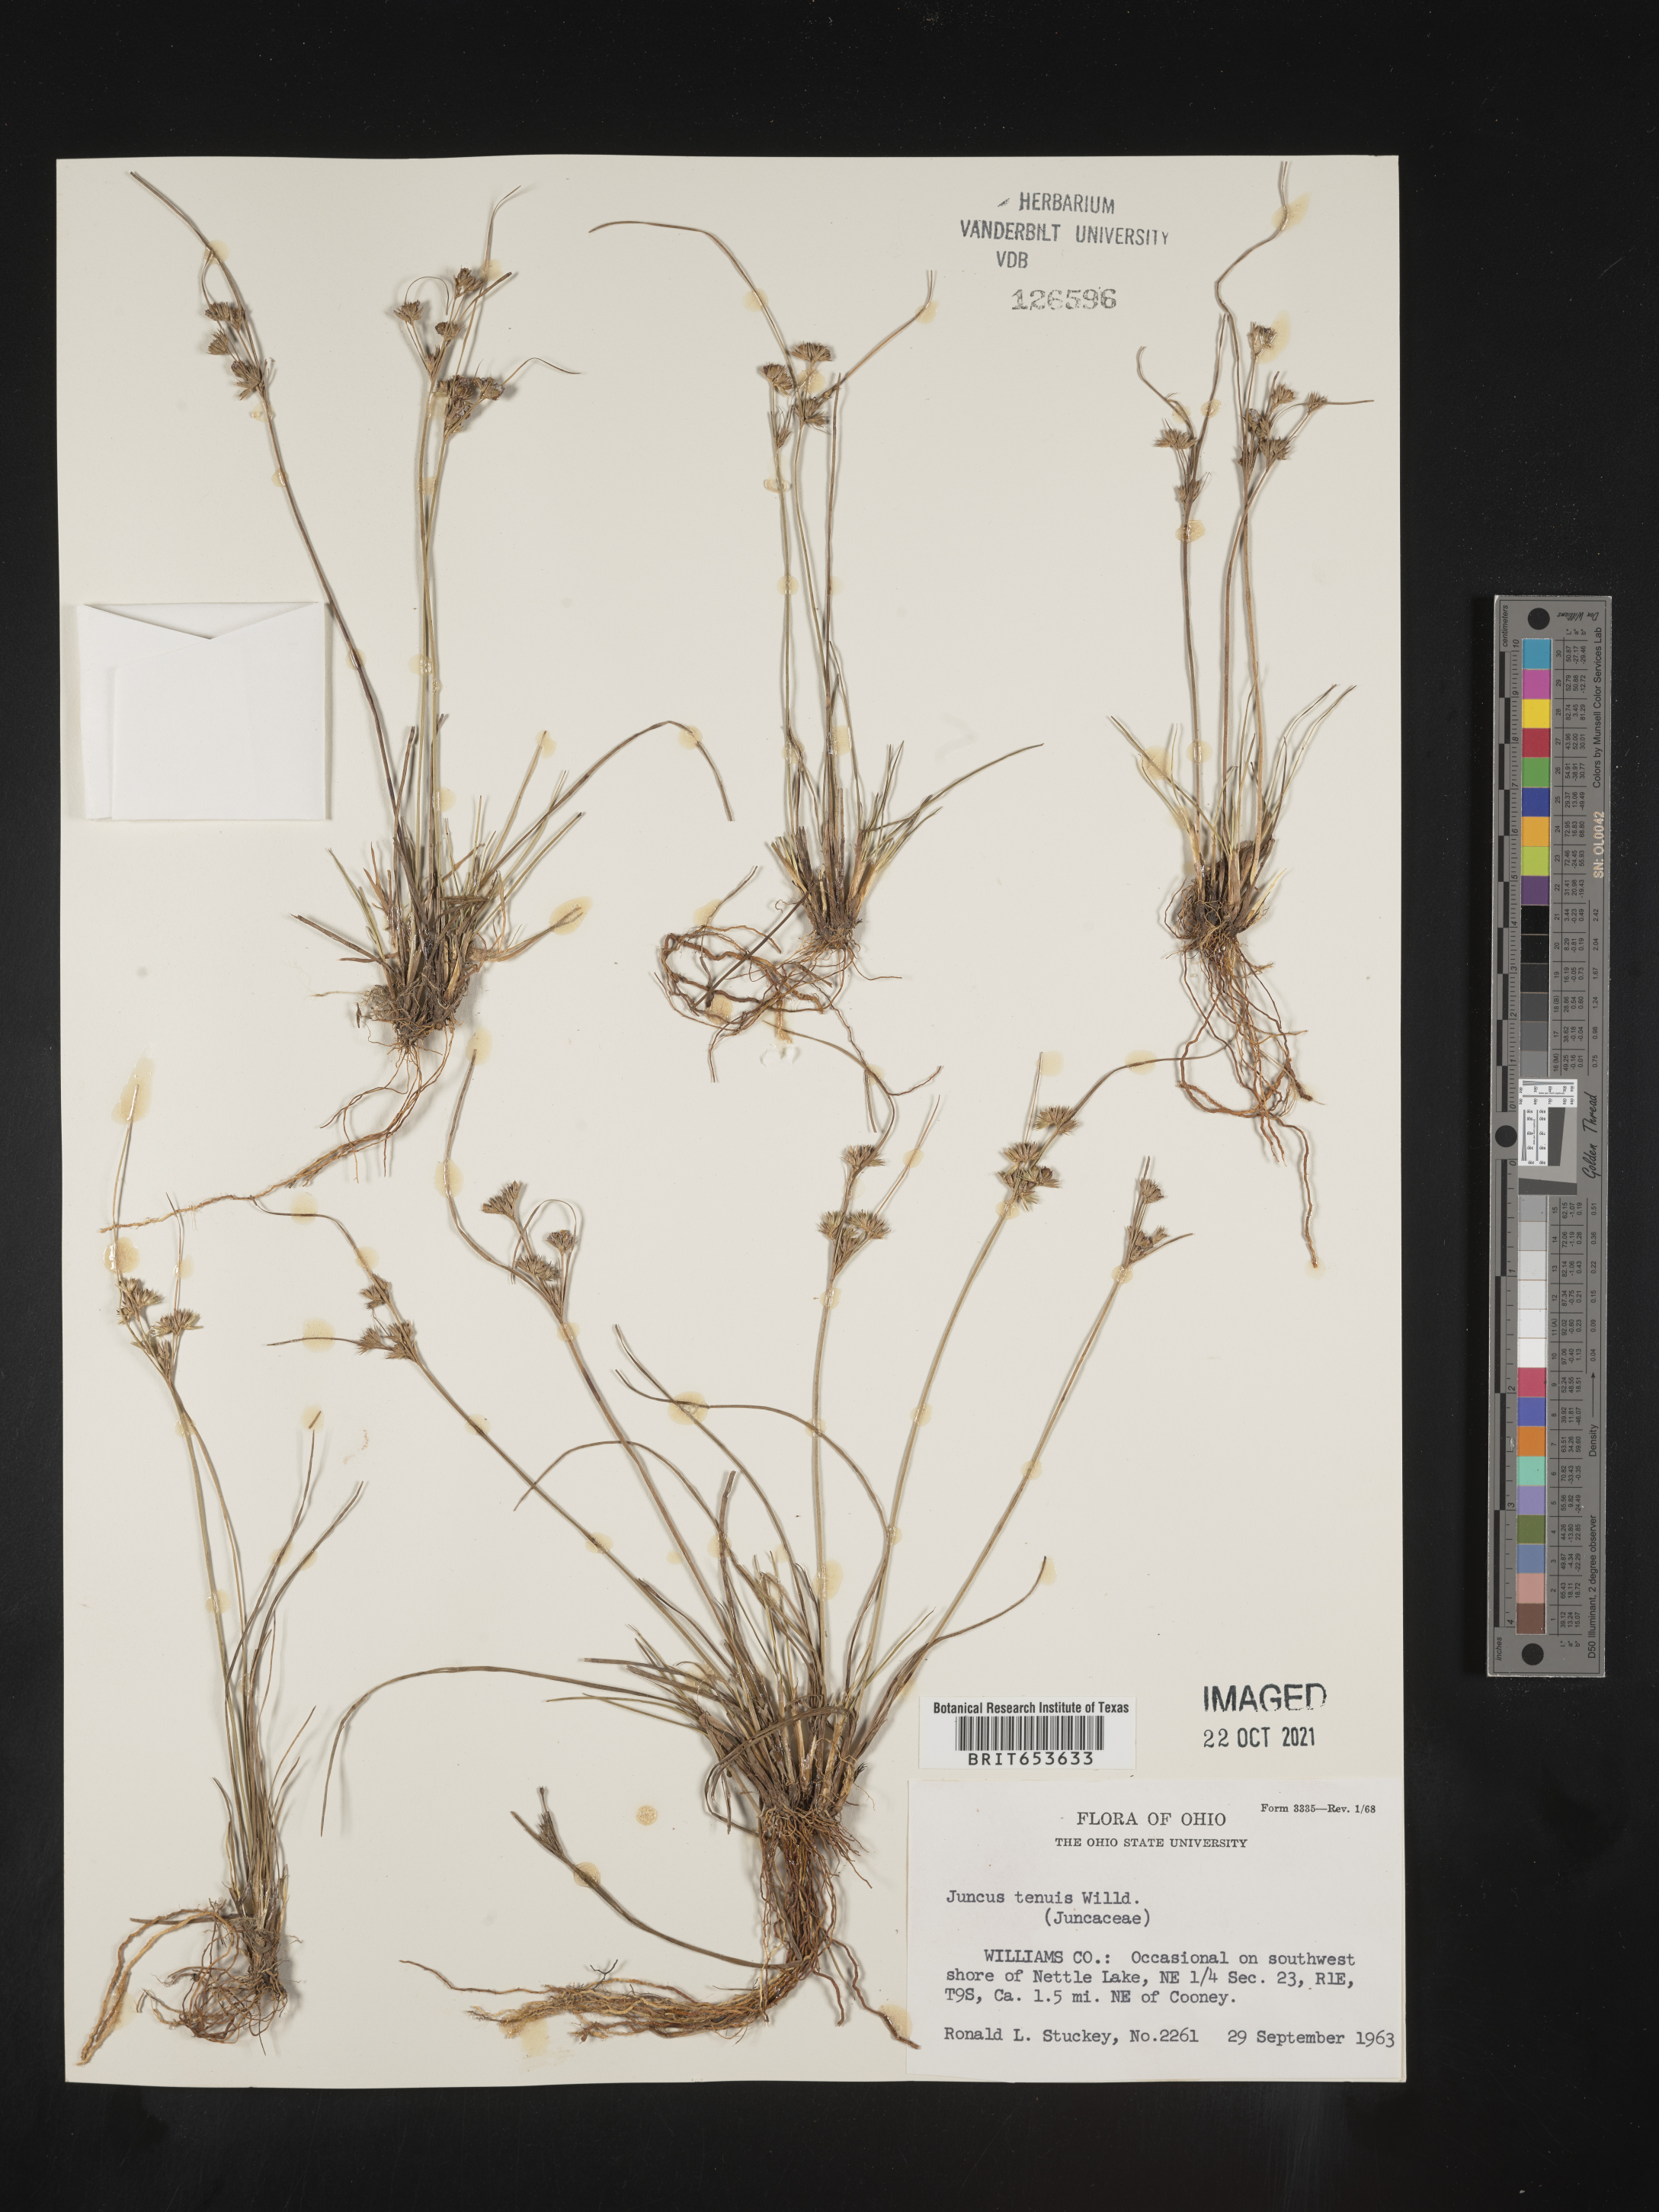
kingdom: Plantae
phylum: Tracheophyta
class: Liliopsida
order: Poales
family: Juncaceae
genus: Juncus
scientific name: Juncus tenuis
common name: Slender rush
